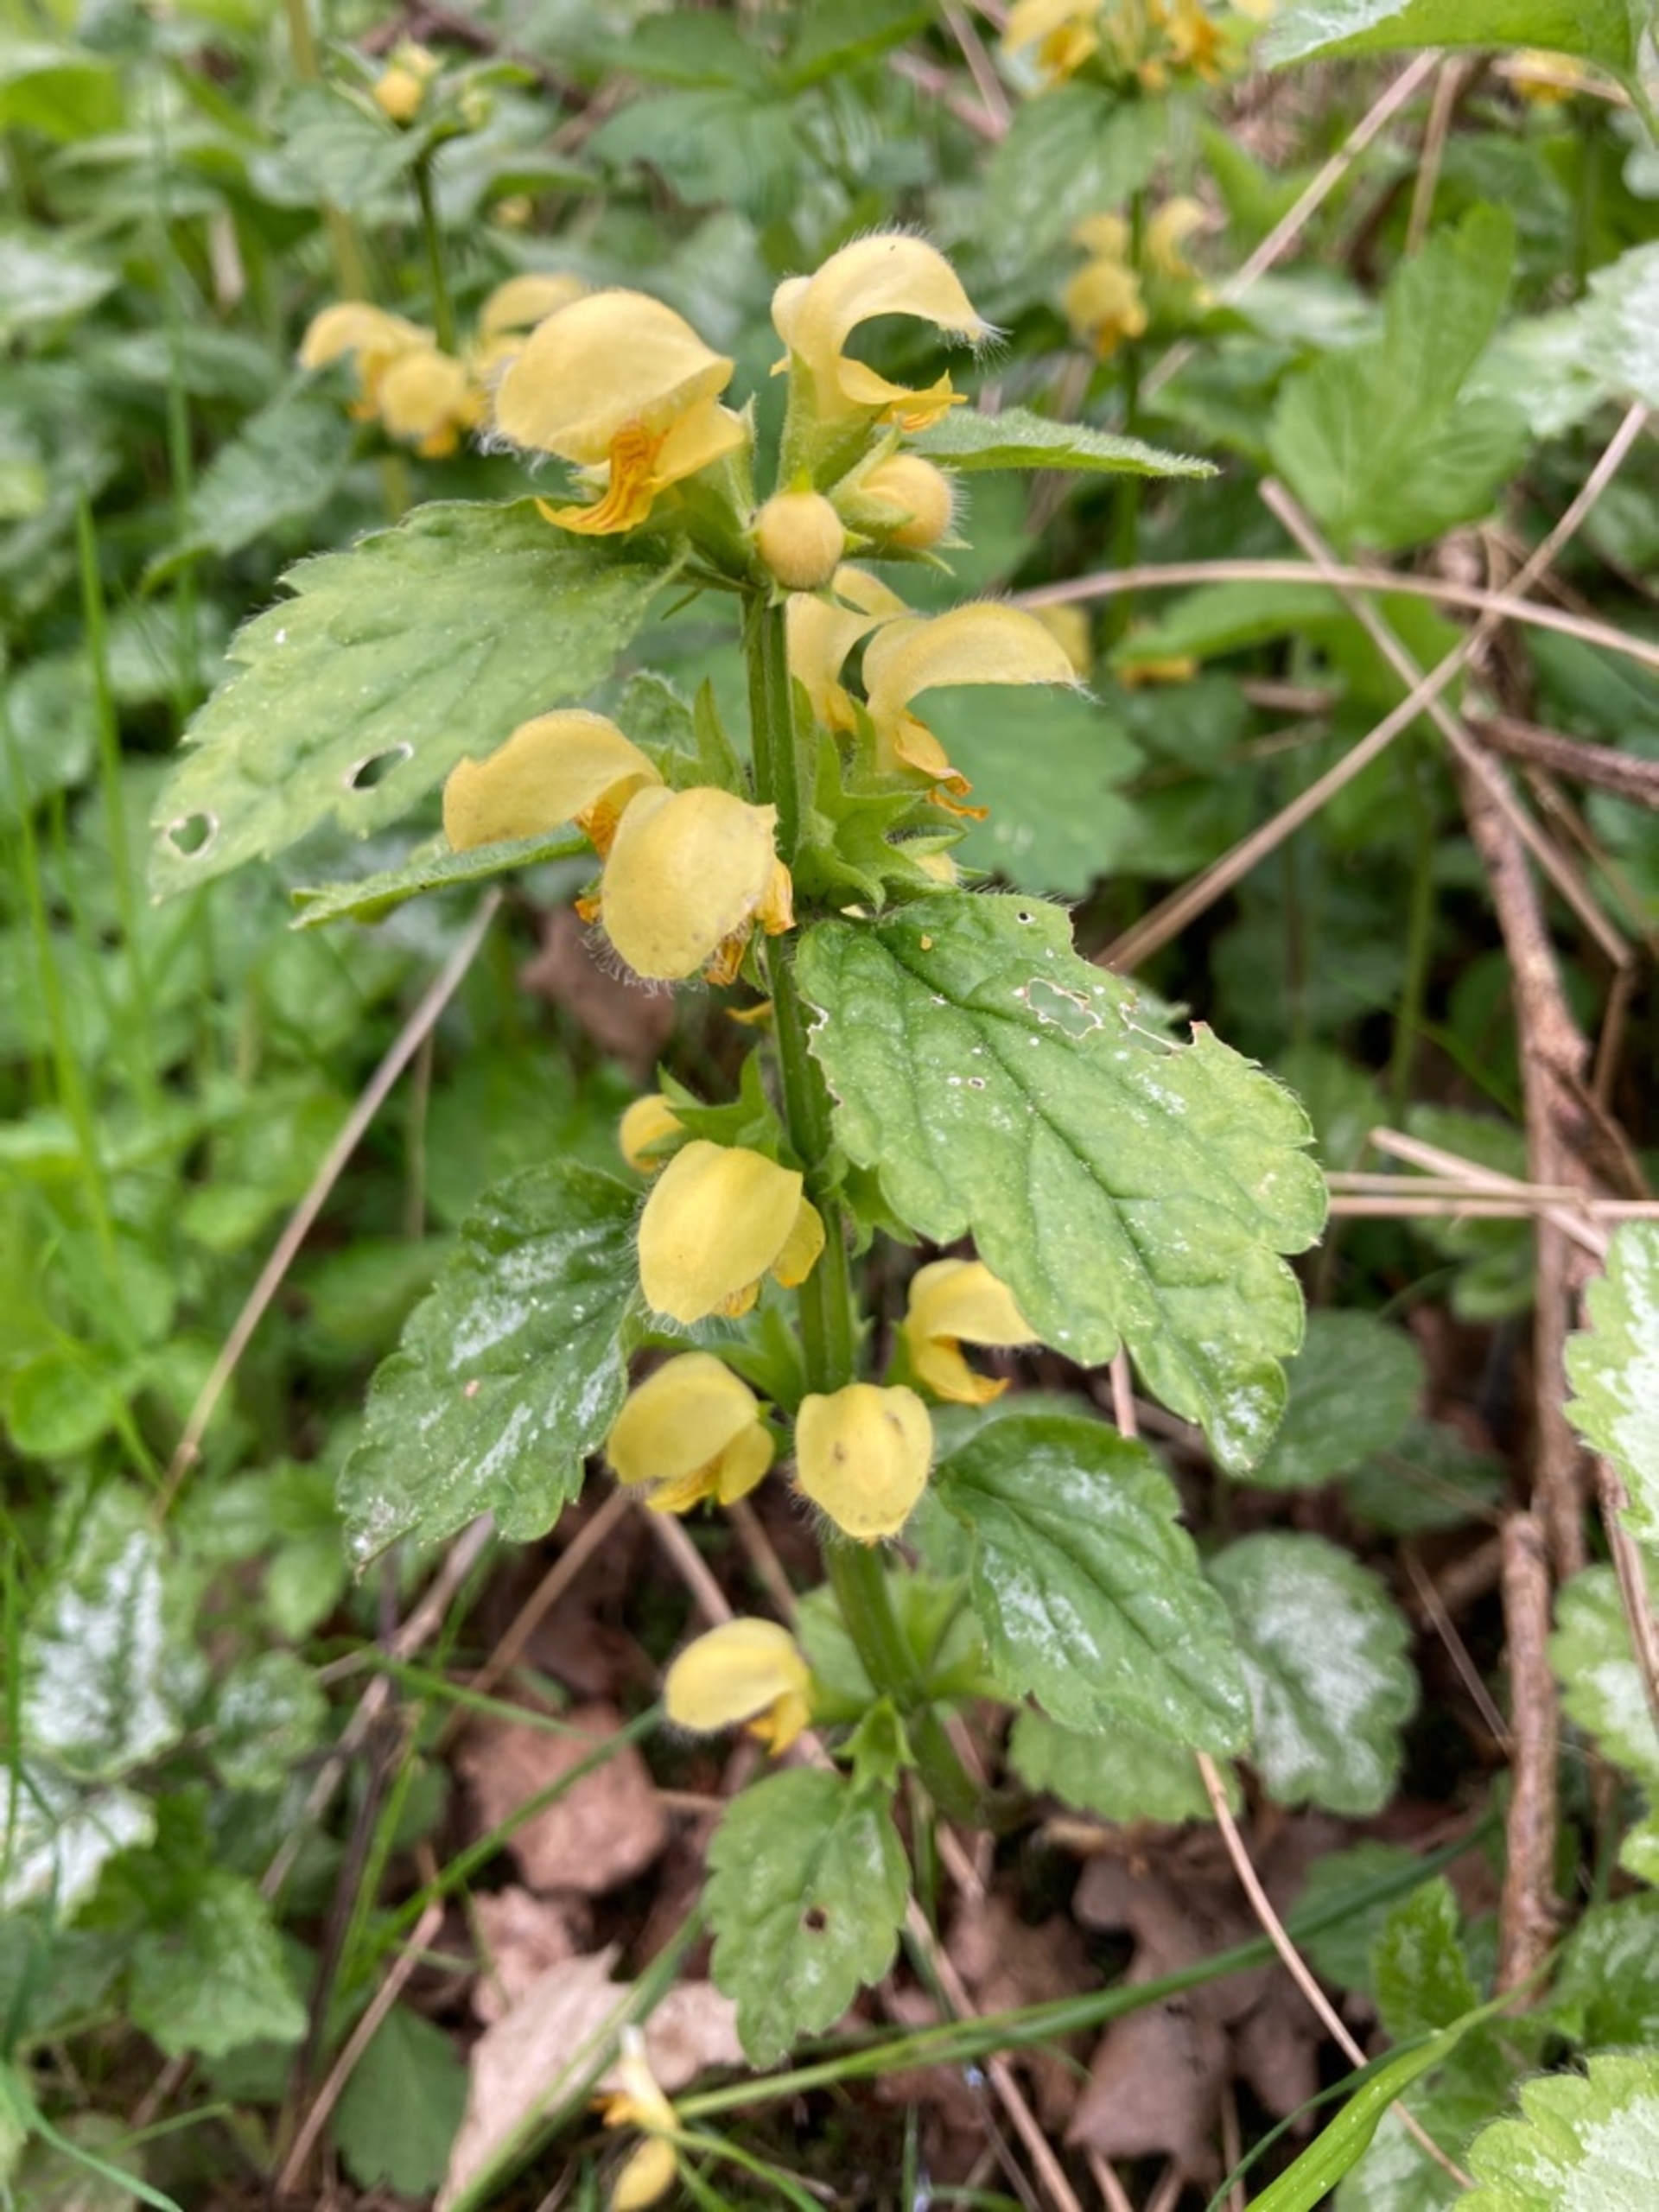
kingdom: Plantae
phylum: Tracheophyta
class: Magnoliopsida
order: Lamiales
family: Lamiaceae
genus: Lamium
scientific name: Lamium galeobdolon
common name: Have-guldnælde
